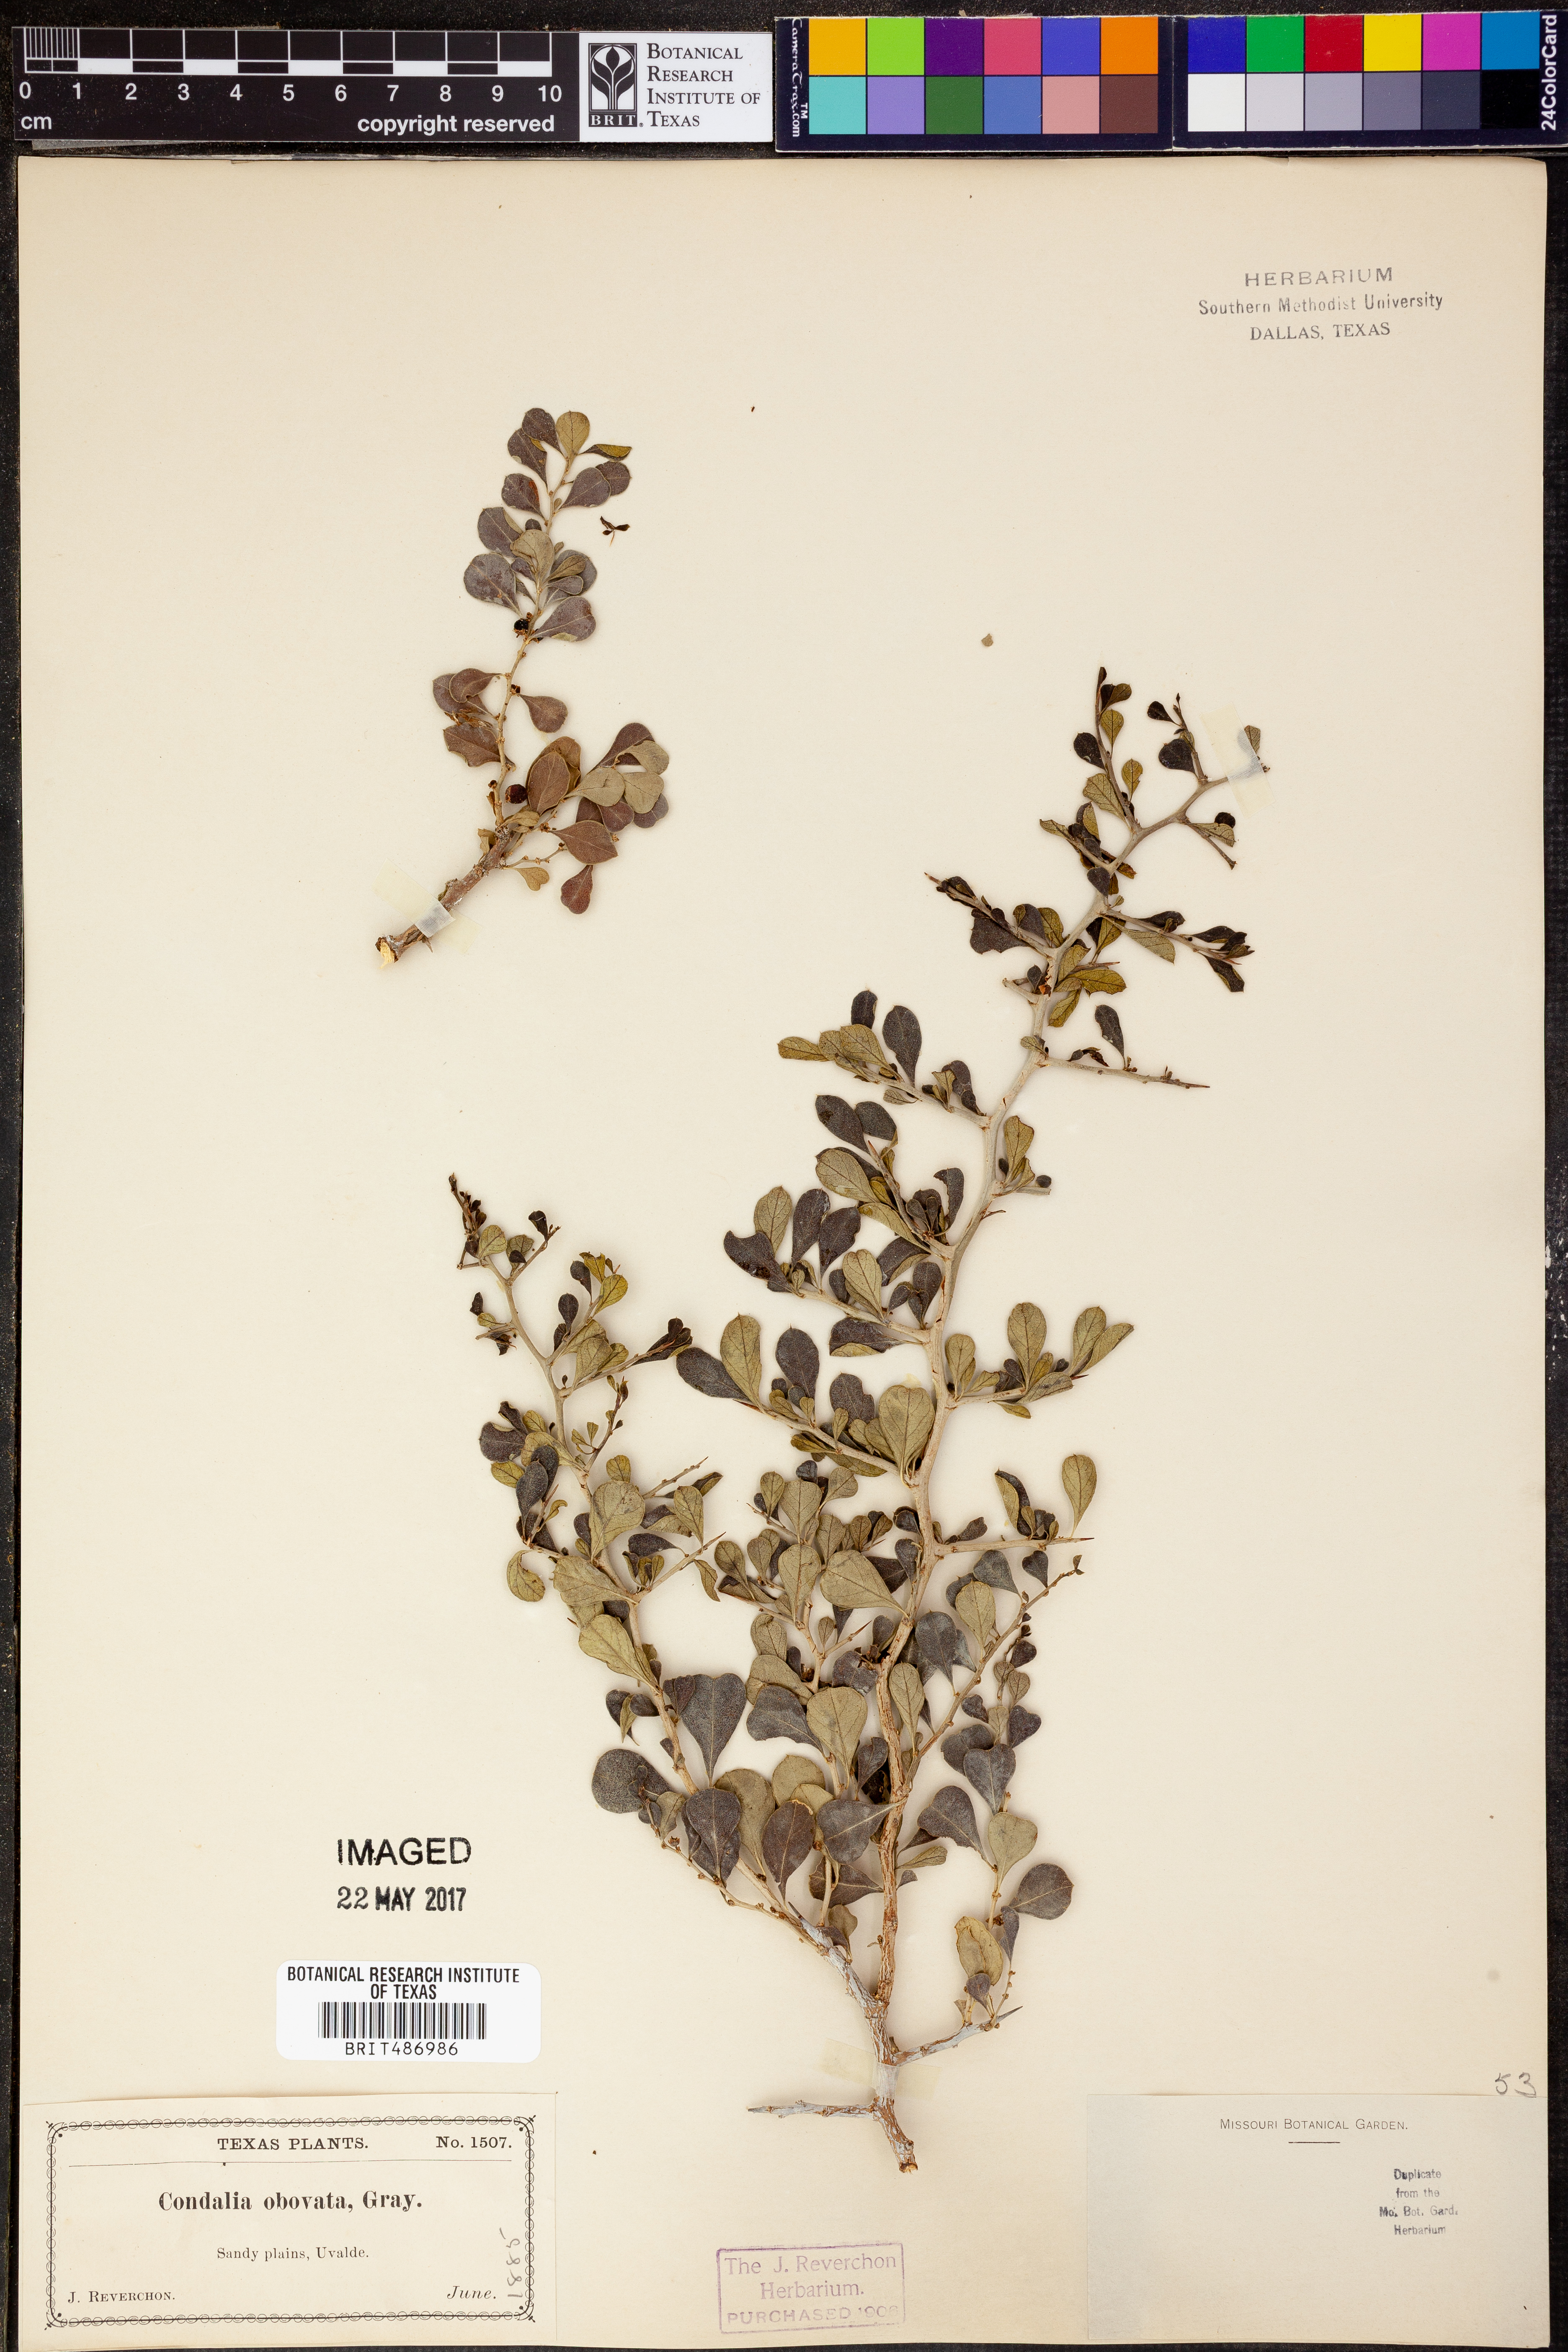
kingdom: Plantae
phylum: Tracheophyta
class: Magnoliopsida
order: Rosales
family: Rhamnaceae
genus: Condalia
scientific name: Condalia hookeri
